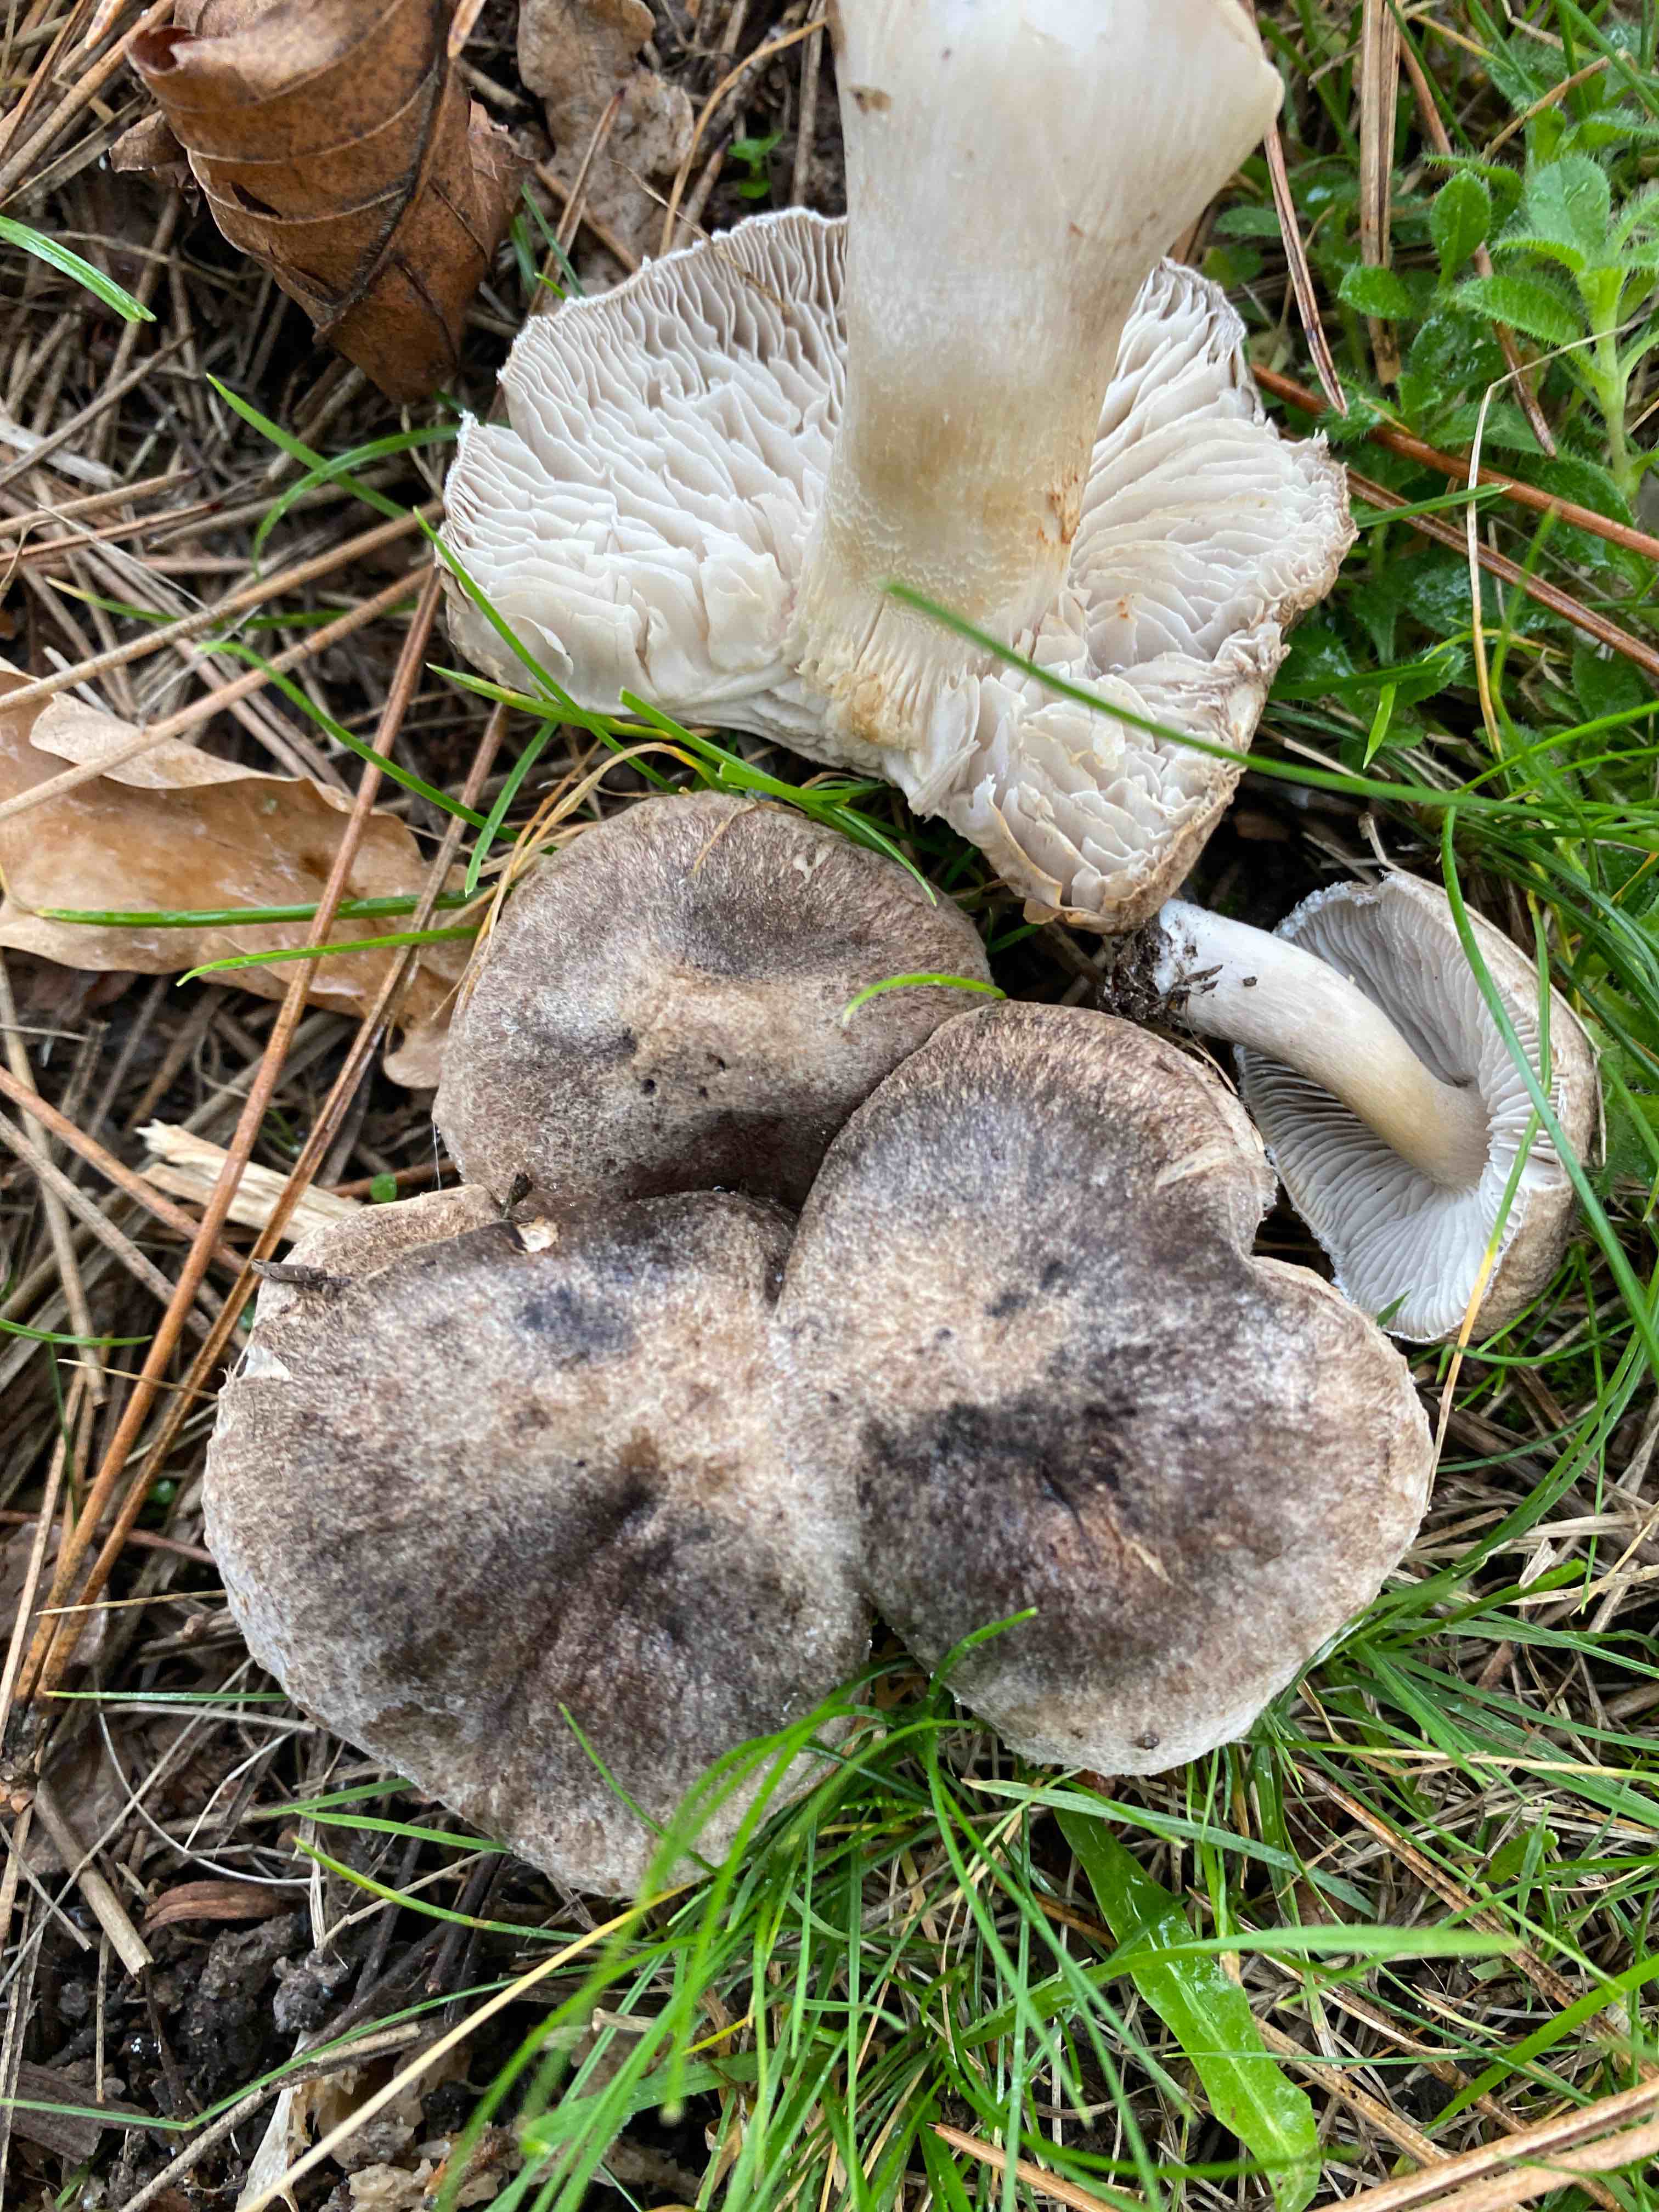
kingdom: Fungi
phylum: Basidiomycota
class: Agaricomycetes
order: Agaricales
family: Tricholomataceae
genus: Tricholoma
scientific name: Tricholoma terreum
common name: jordfarvet ridderhat
